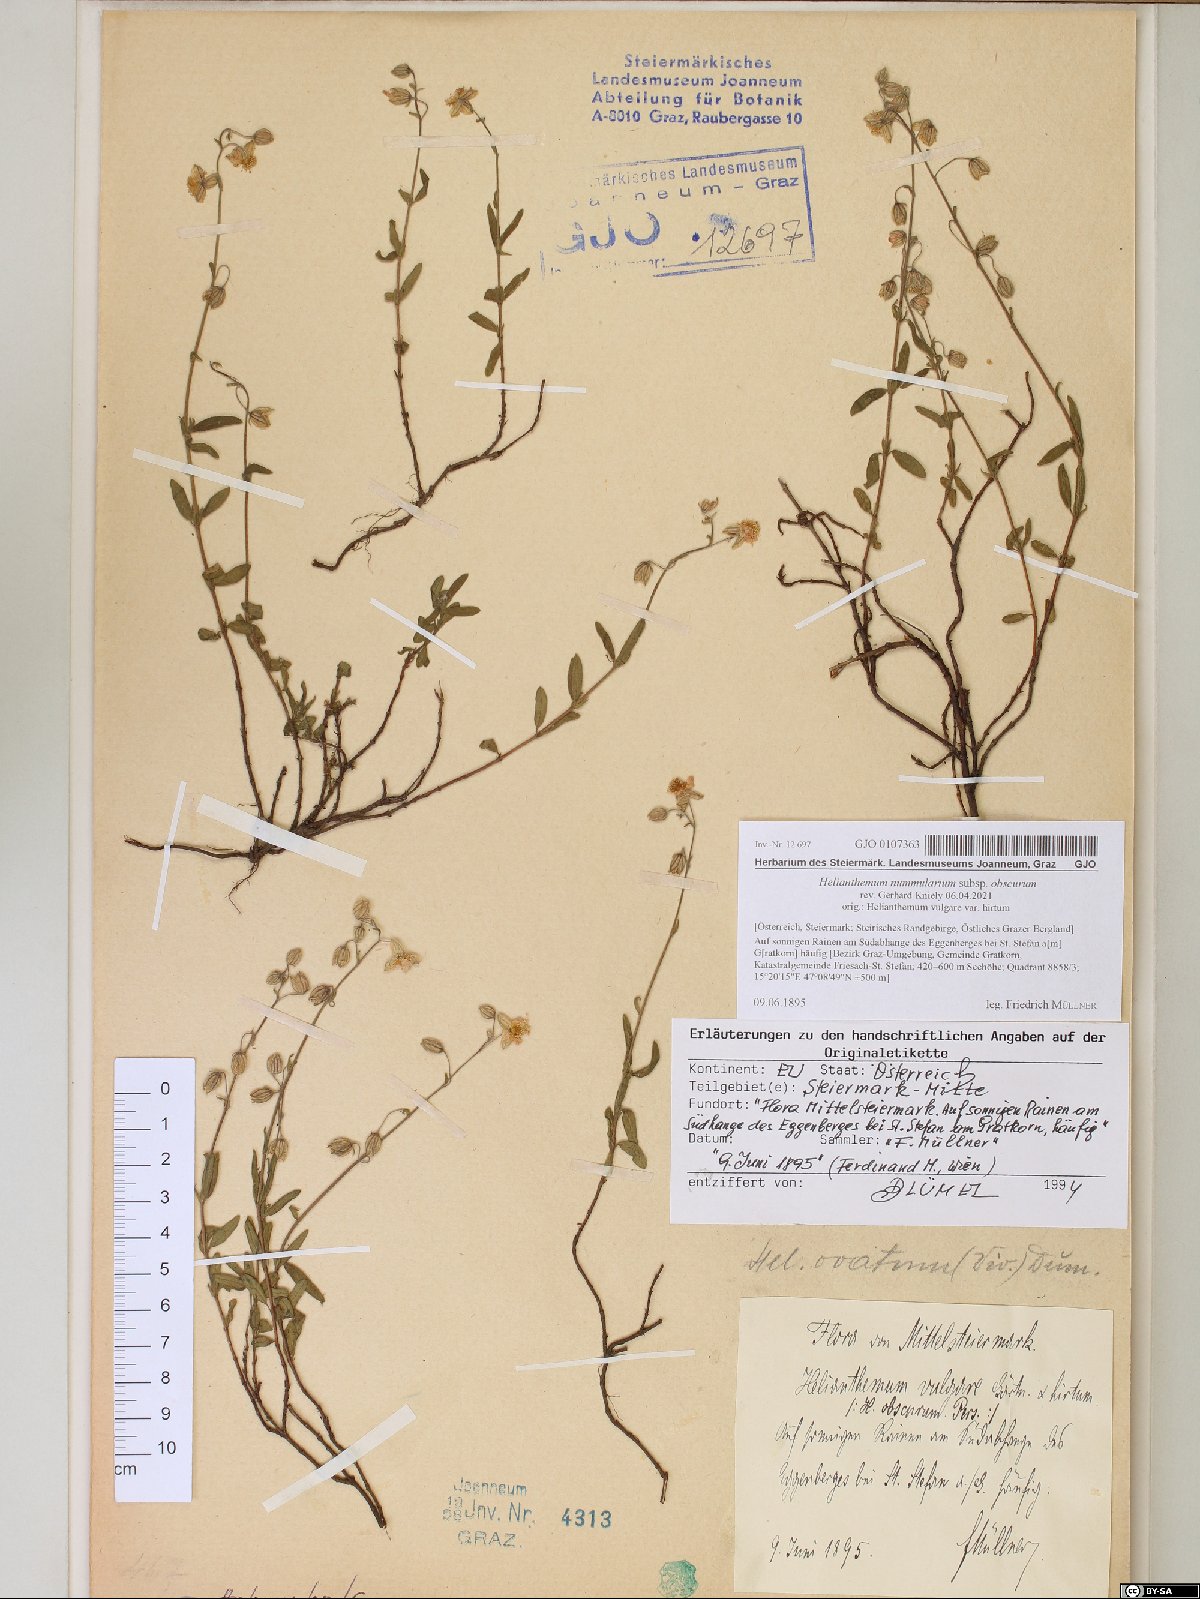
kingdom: Plantae
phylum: Tracheophyta
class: Magnoliopsida
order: Malvales
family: Cistaceae
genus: Helianthemum
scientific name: Helianthemum nummularium
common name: Common rock-rose
